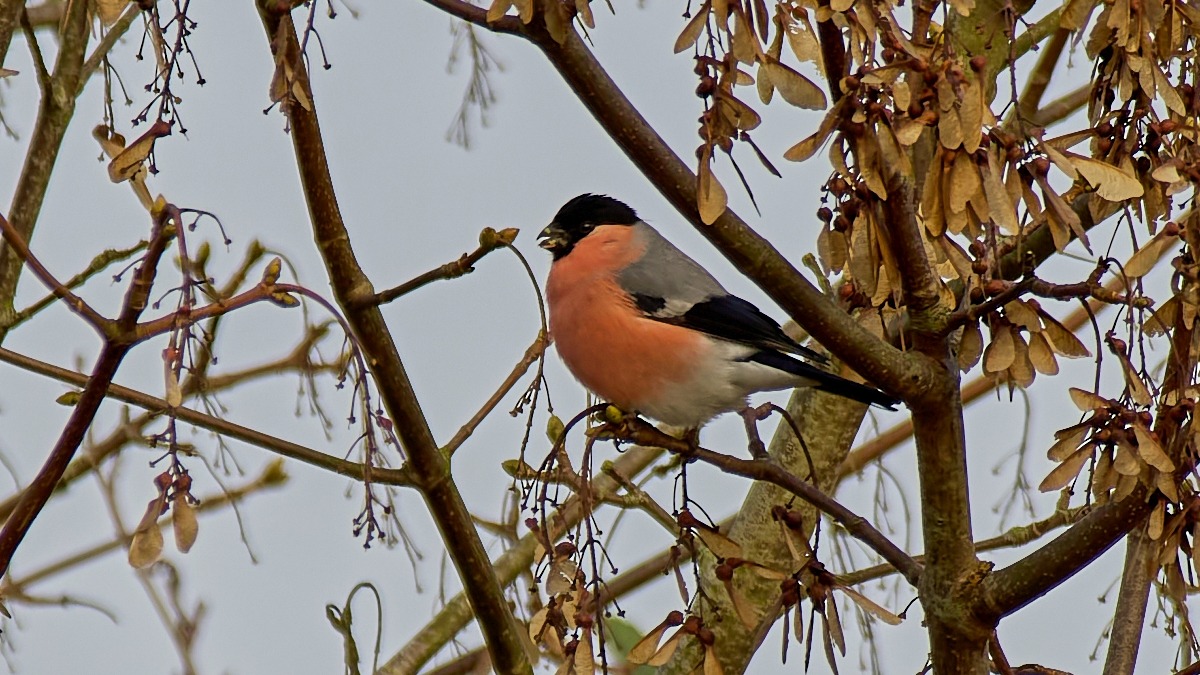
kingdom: Animalia
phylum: Chordata
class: Aves
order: Passeriformes
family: Fringillidae
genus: Pyrrhula
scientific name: Pyrrhula pyrrhula
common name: Dompap
